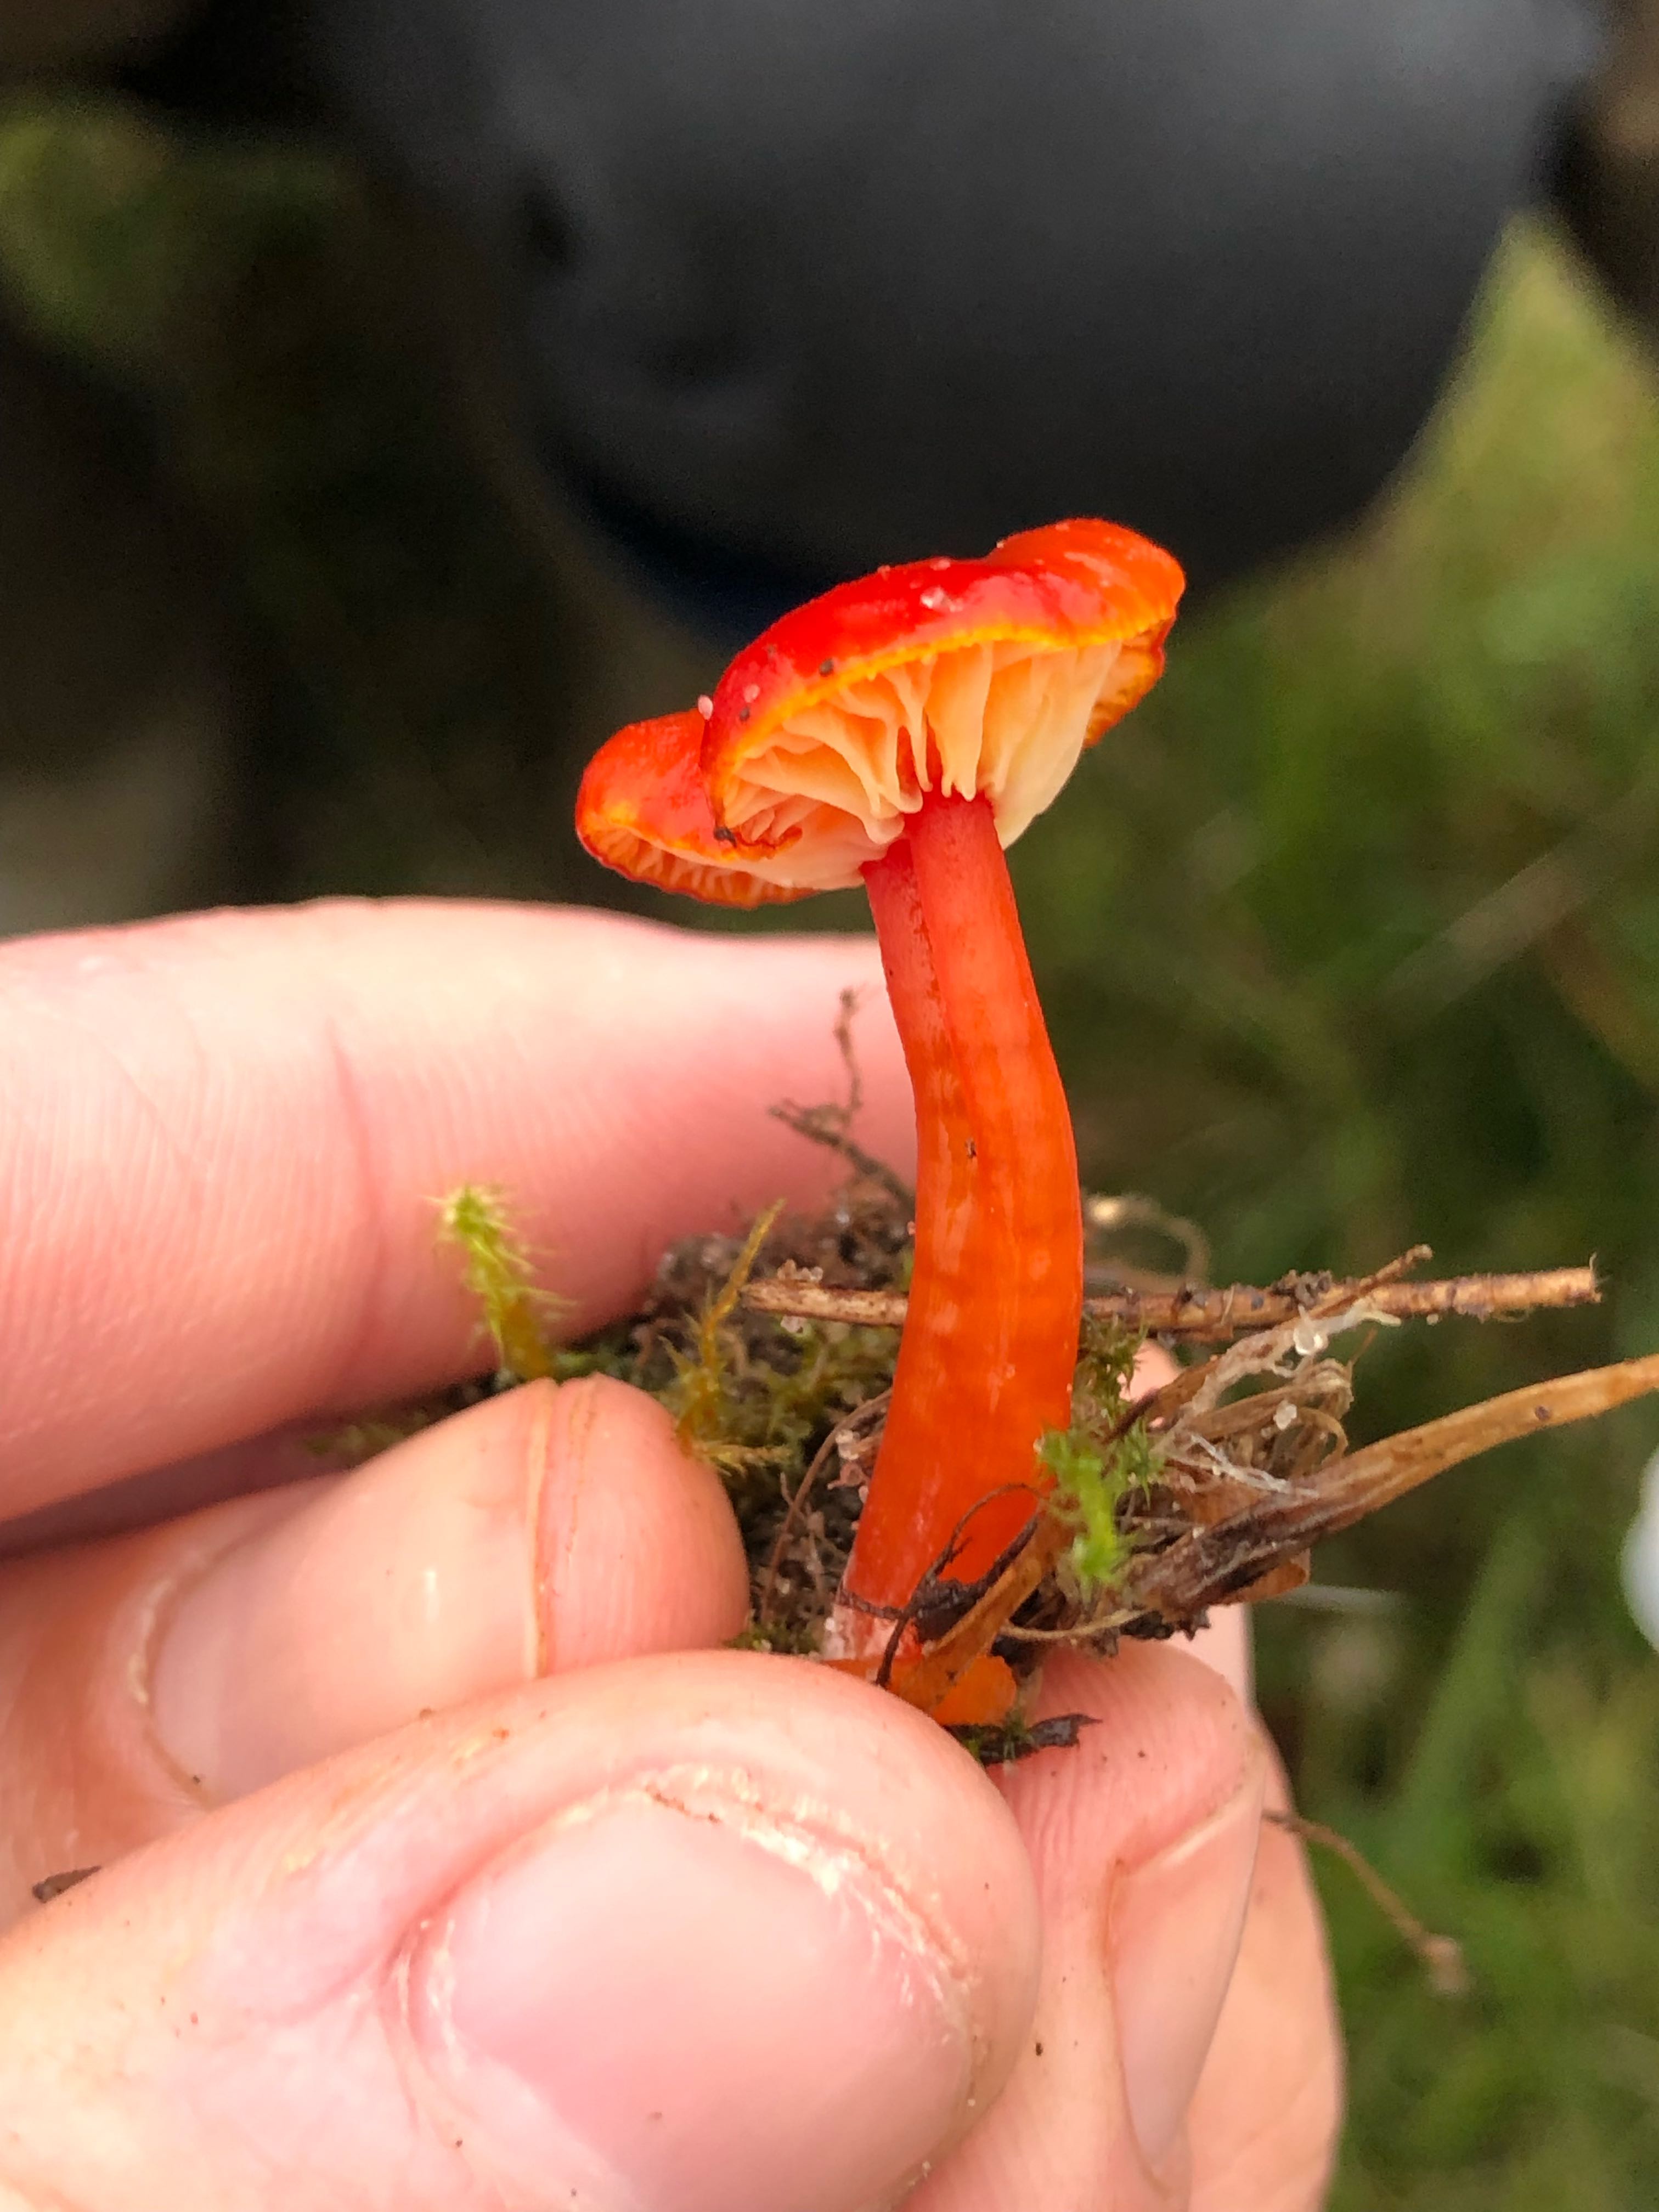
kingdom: Fungi
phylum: Basidiomycota
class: Agaricomycetes
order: Agaricales
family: Hygrophoraceae
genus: Hygrocybe
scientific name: Hygrocybe
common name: vokshat
